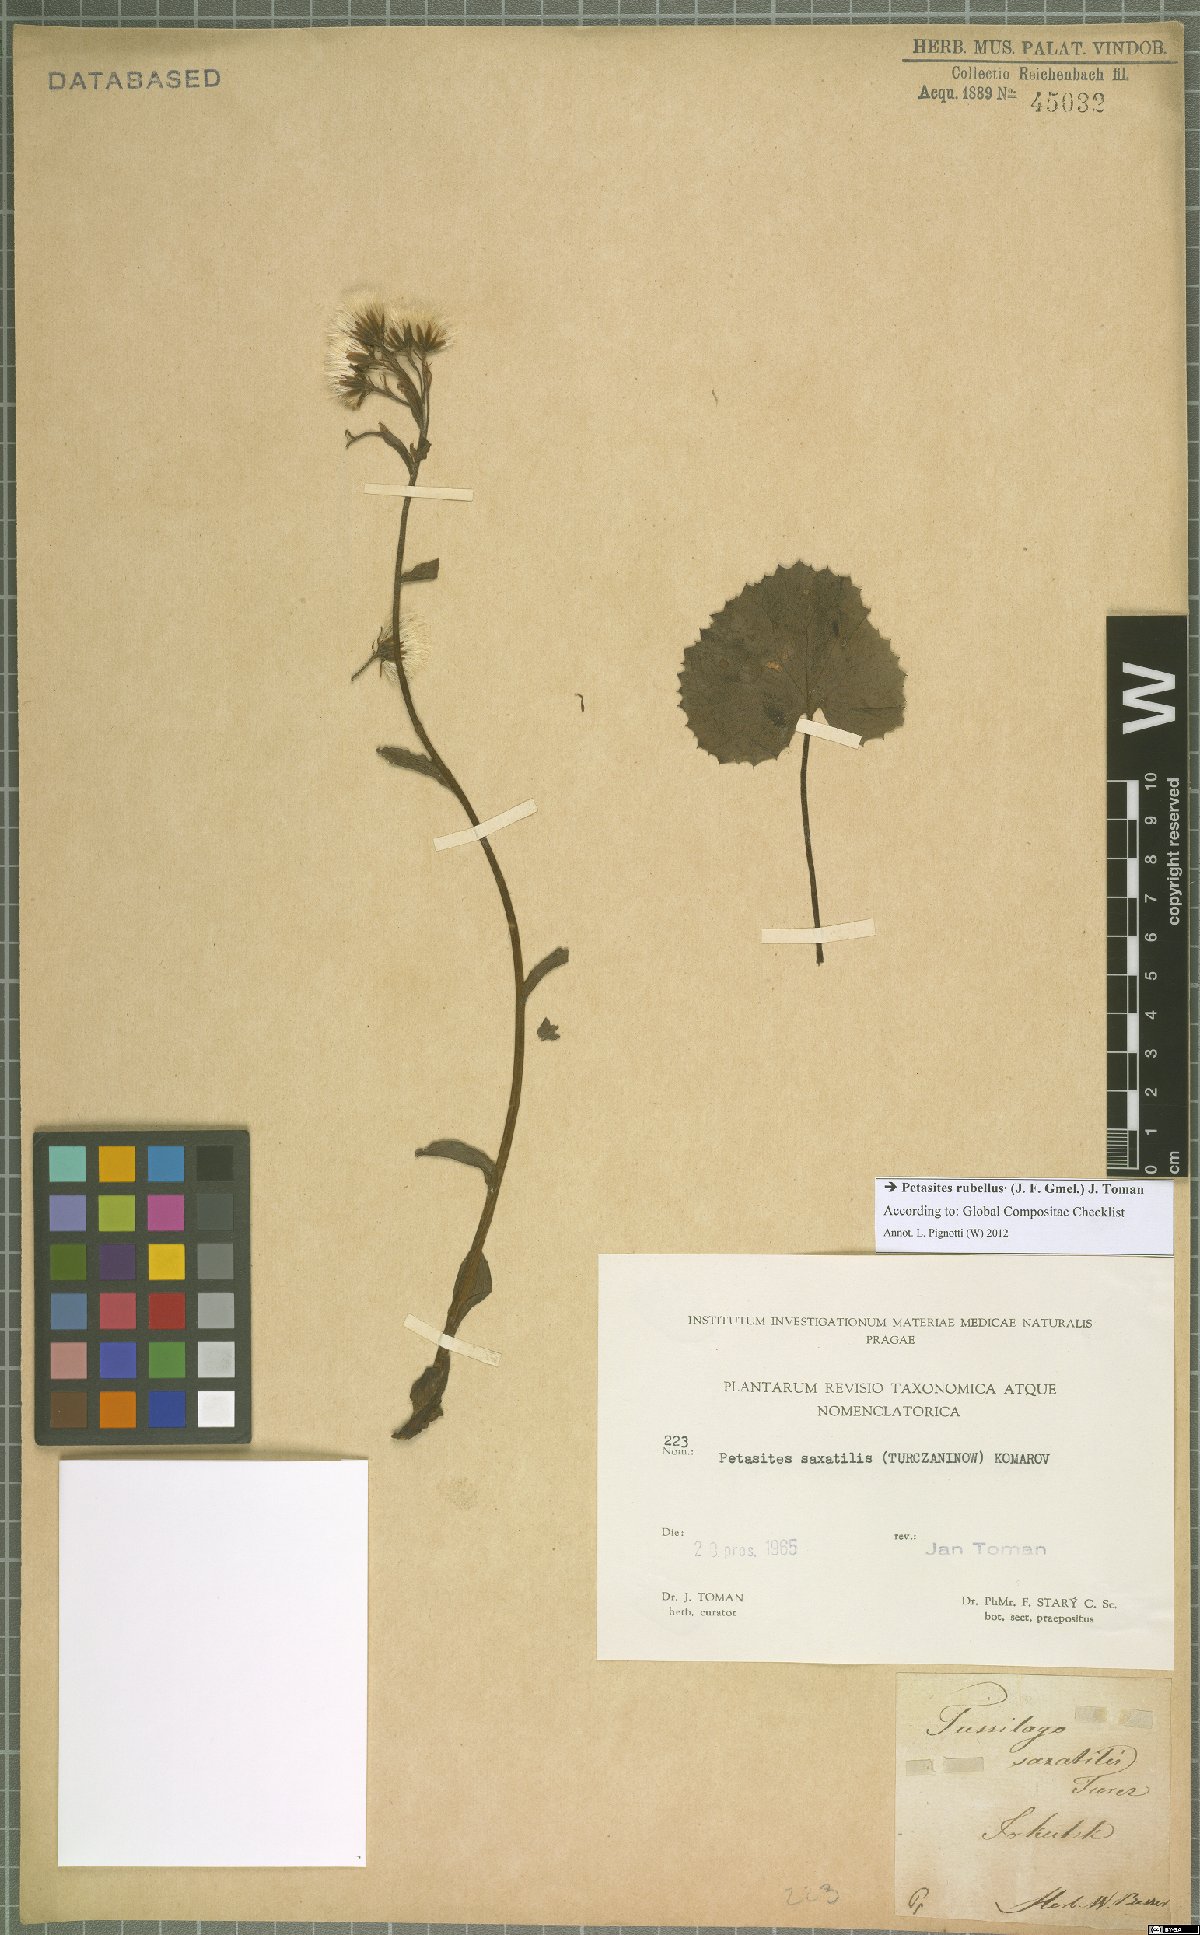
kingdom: Plantae
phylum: Tracheophyta
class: Magnoliopsida
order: Asterales
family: Asteraceae
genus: Petasites
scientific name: Petasites rubellus
